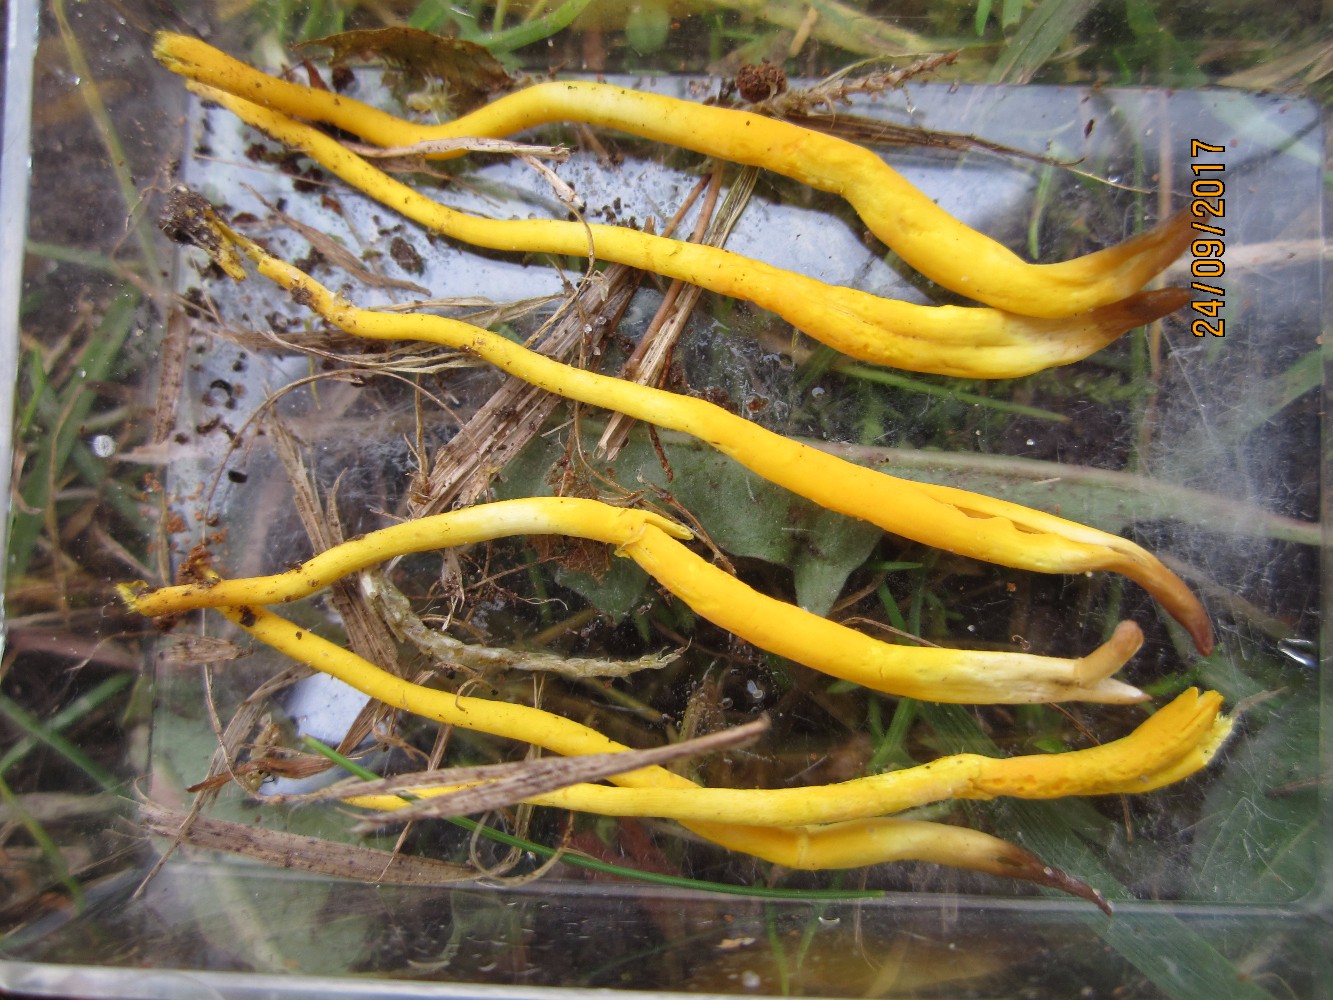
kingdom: Fungi
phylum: Basidiomycota
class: Agaricomycetes
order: Agaricales
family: Clavariaceae
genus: Clavulinopsis
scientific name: Clavulinopsis helvola
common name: orangegul køllesvamp
